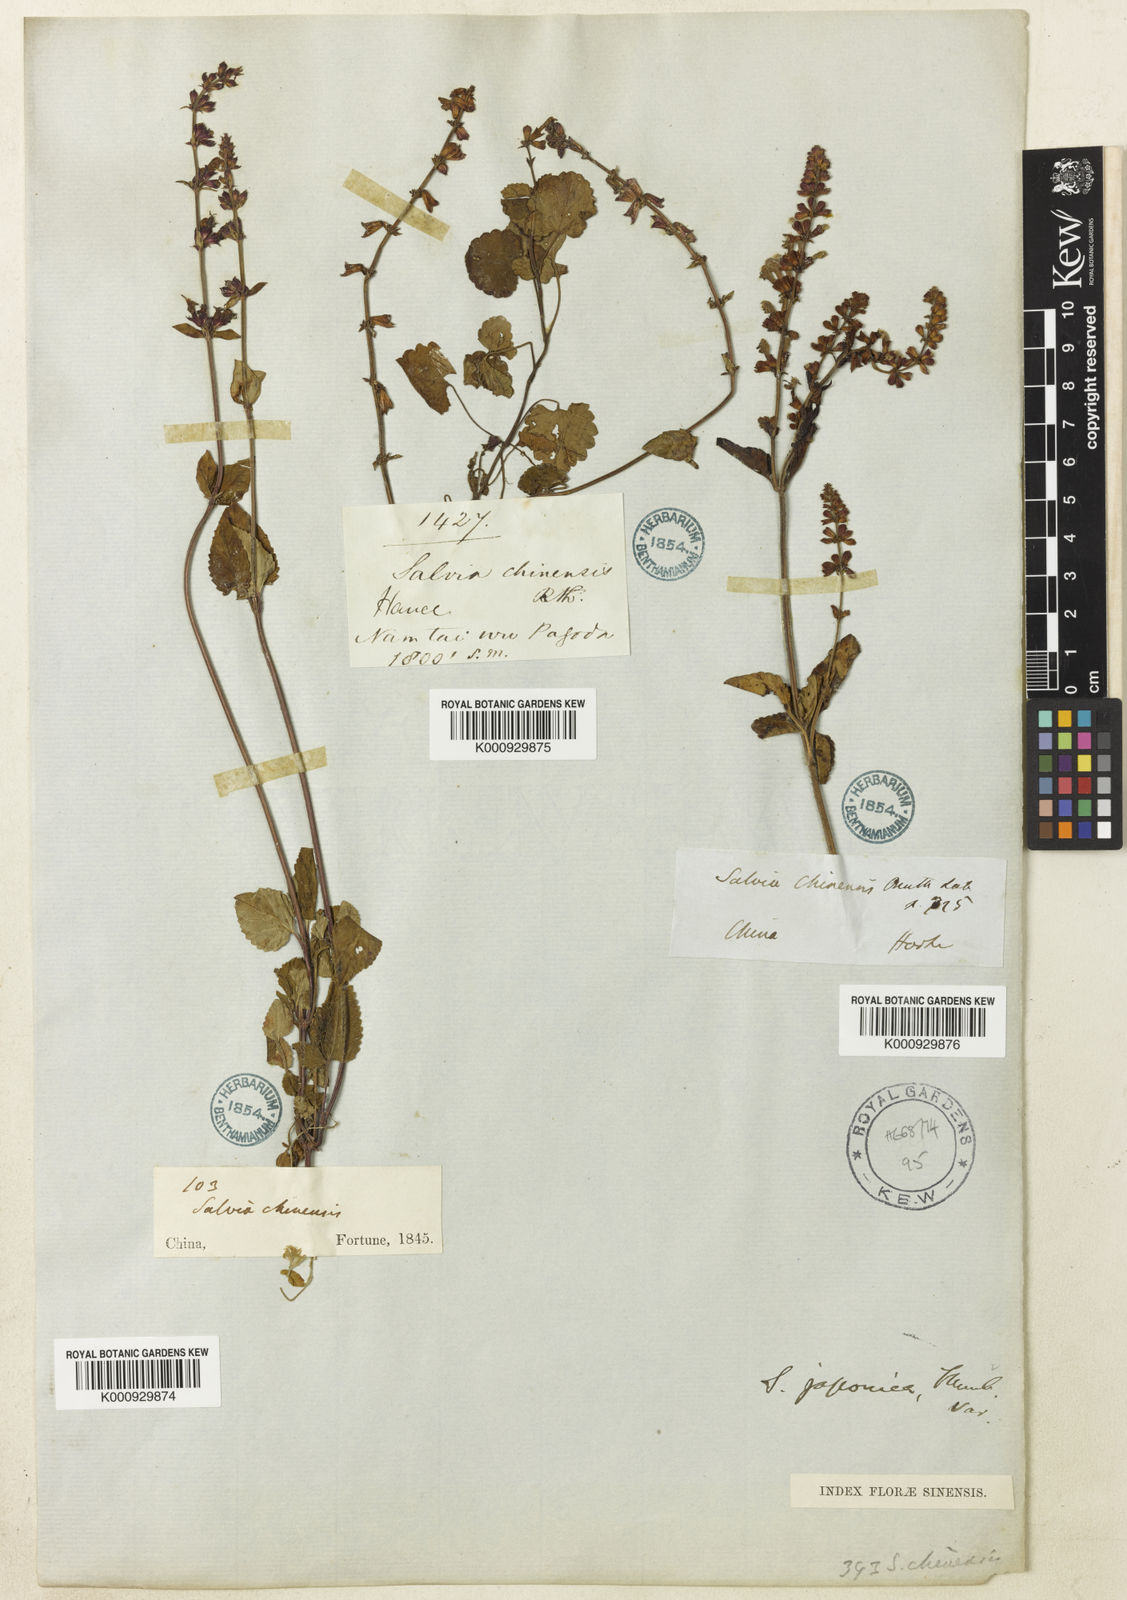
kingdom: Plantae
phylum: Tracheophyta
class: Magnoliopsida
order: Lamiales
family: Lamiaceae
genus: Salvia
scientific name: Salvia japonica
